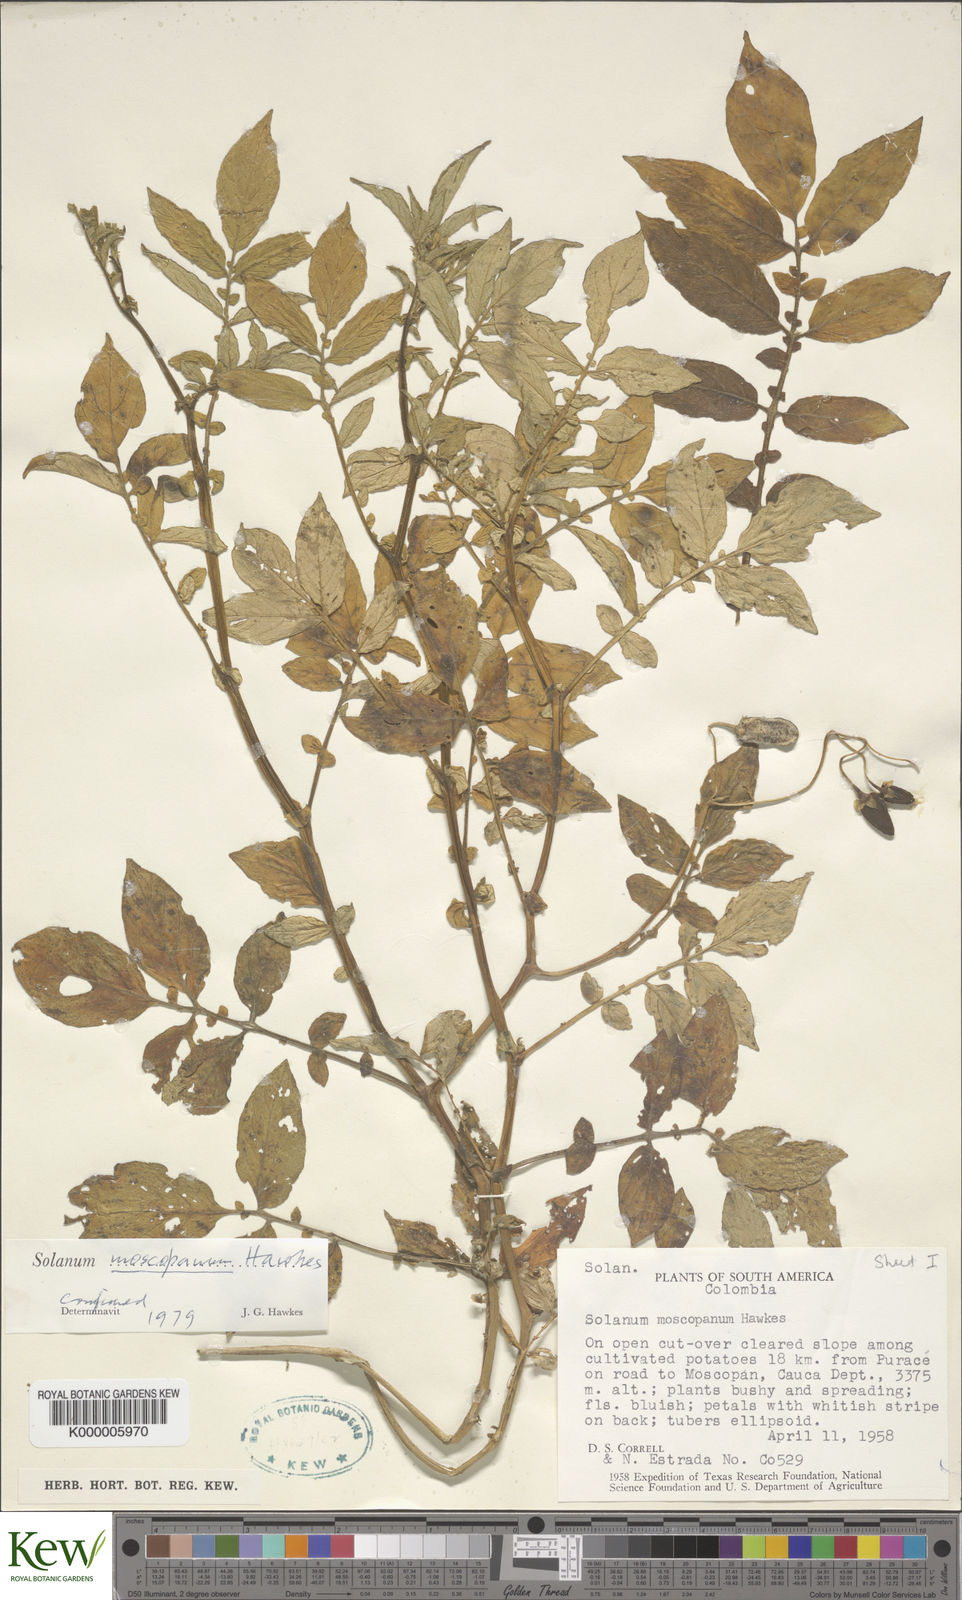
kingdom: Plantae
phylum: Tracheophyta
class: Magnoliopsida
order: Solanales
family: Solanaceae
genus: Solanum
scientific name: Solanum colombianum
